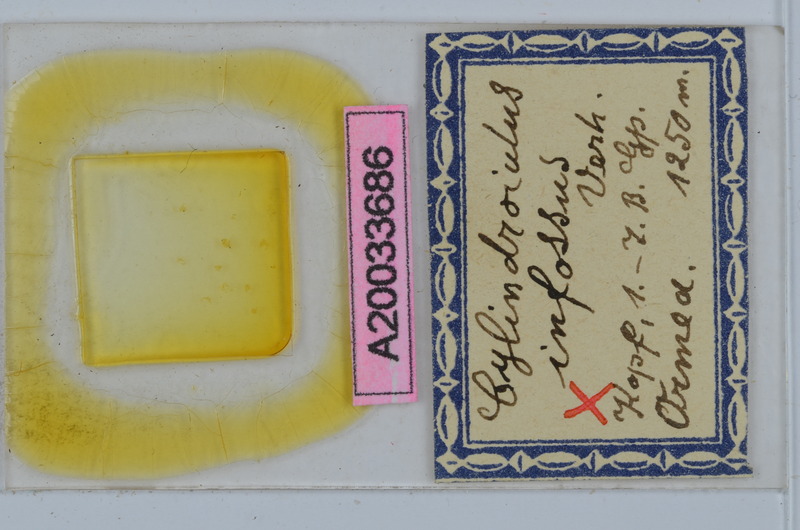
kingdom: Animalia
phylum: Arthropoda
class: Diplopoda
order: Julida
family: Julidae
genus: Allajulus
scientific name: Allajulus infossus
